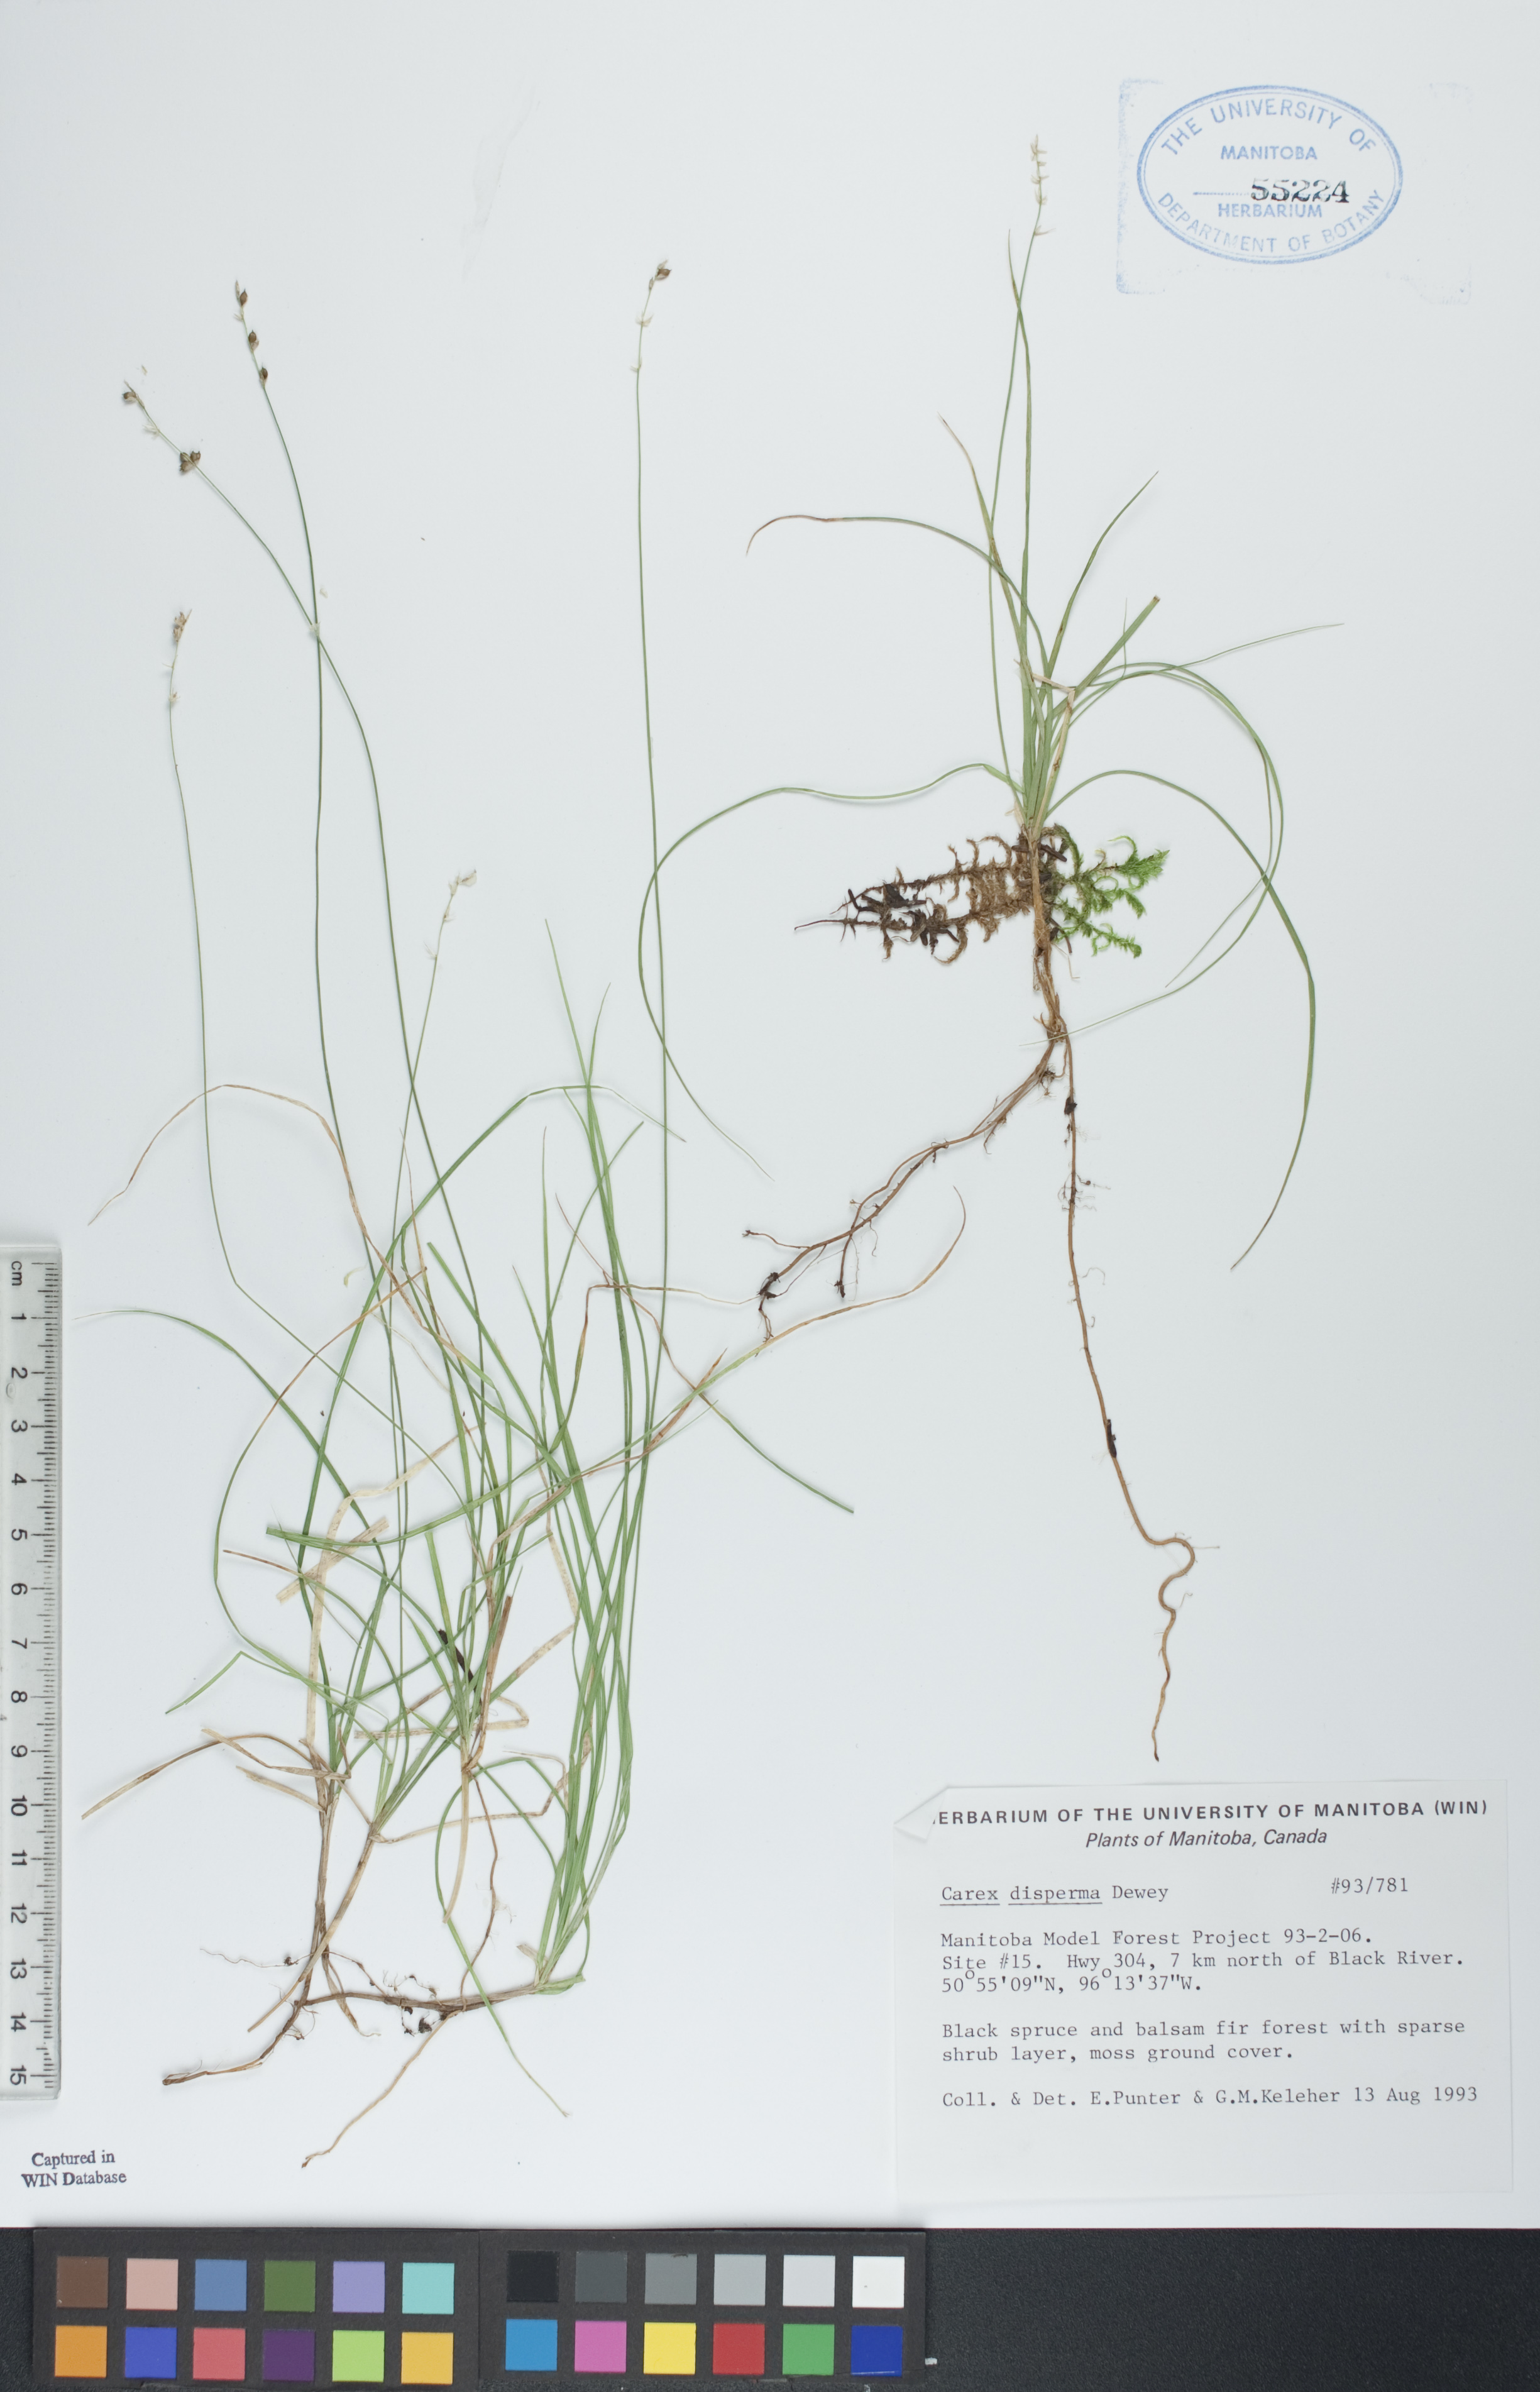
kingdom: Plantae
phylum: Tracheophyta
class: Liliopsida
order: Poales
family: Cyperaceae
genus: Carex
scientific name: Carex disperma
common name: Short-leaved sedge
